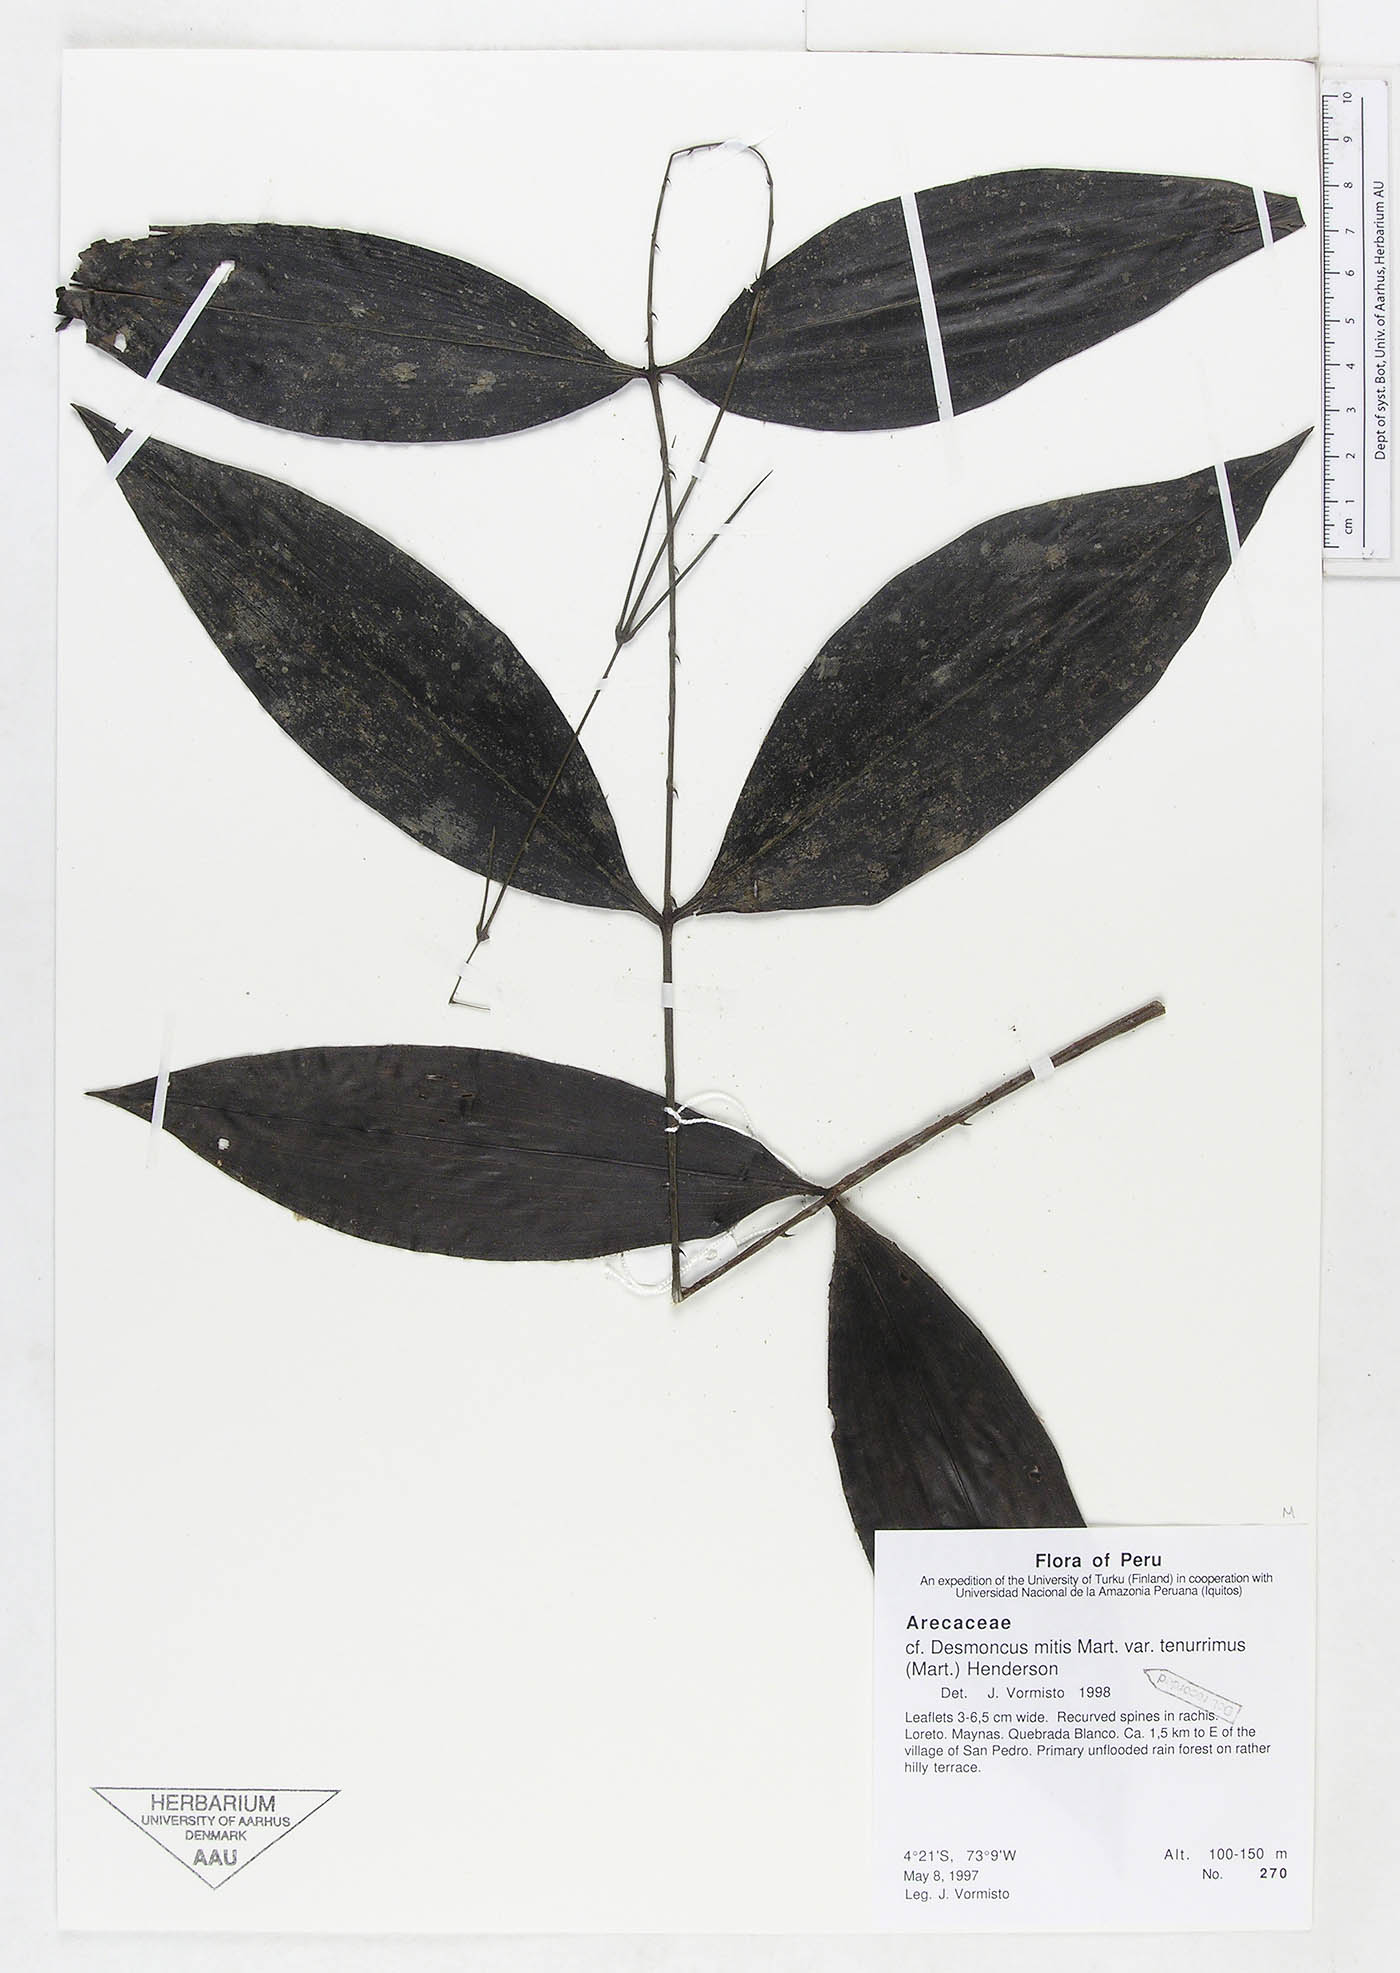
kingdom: Plantae
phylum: Tracheophyta
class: Liliopsida
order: Arecales
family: Arecaceae
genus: Desmoncus
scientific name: Desmoncus vacivus
